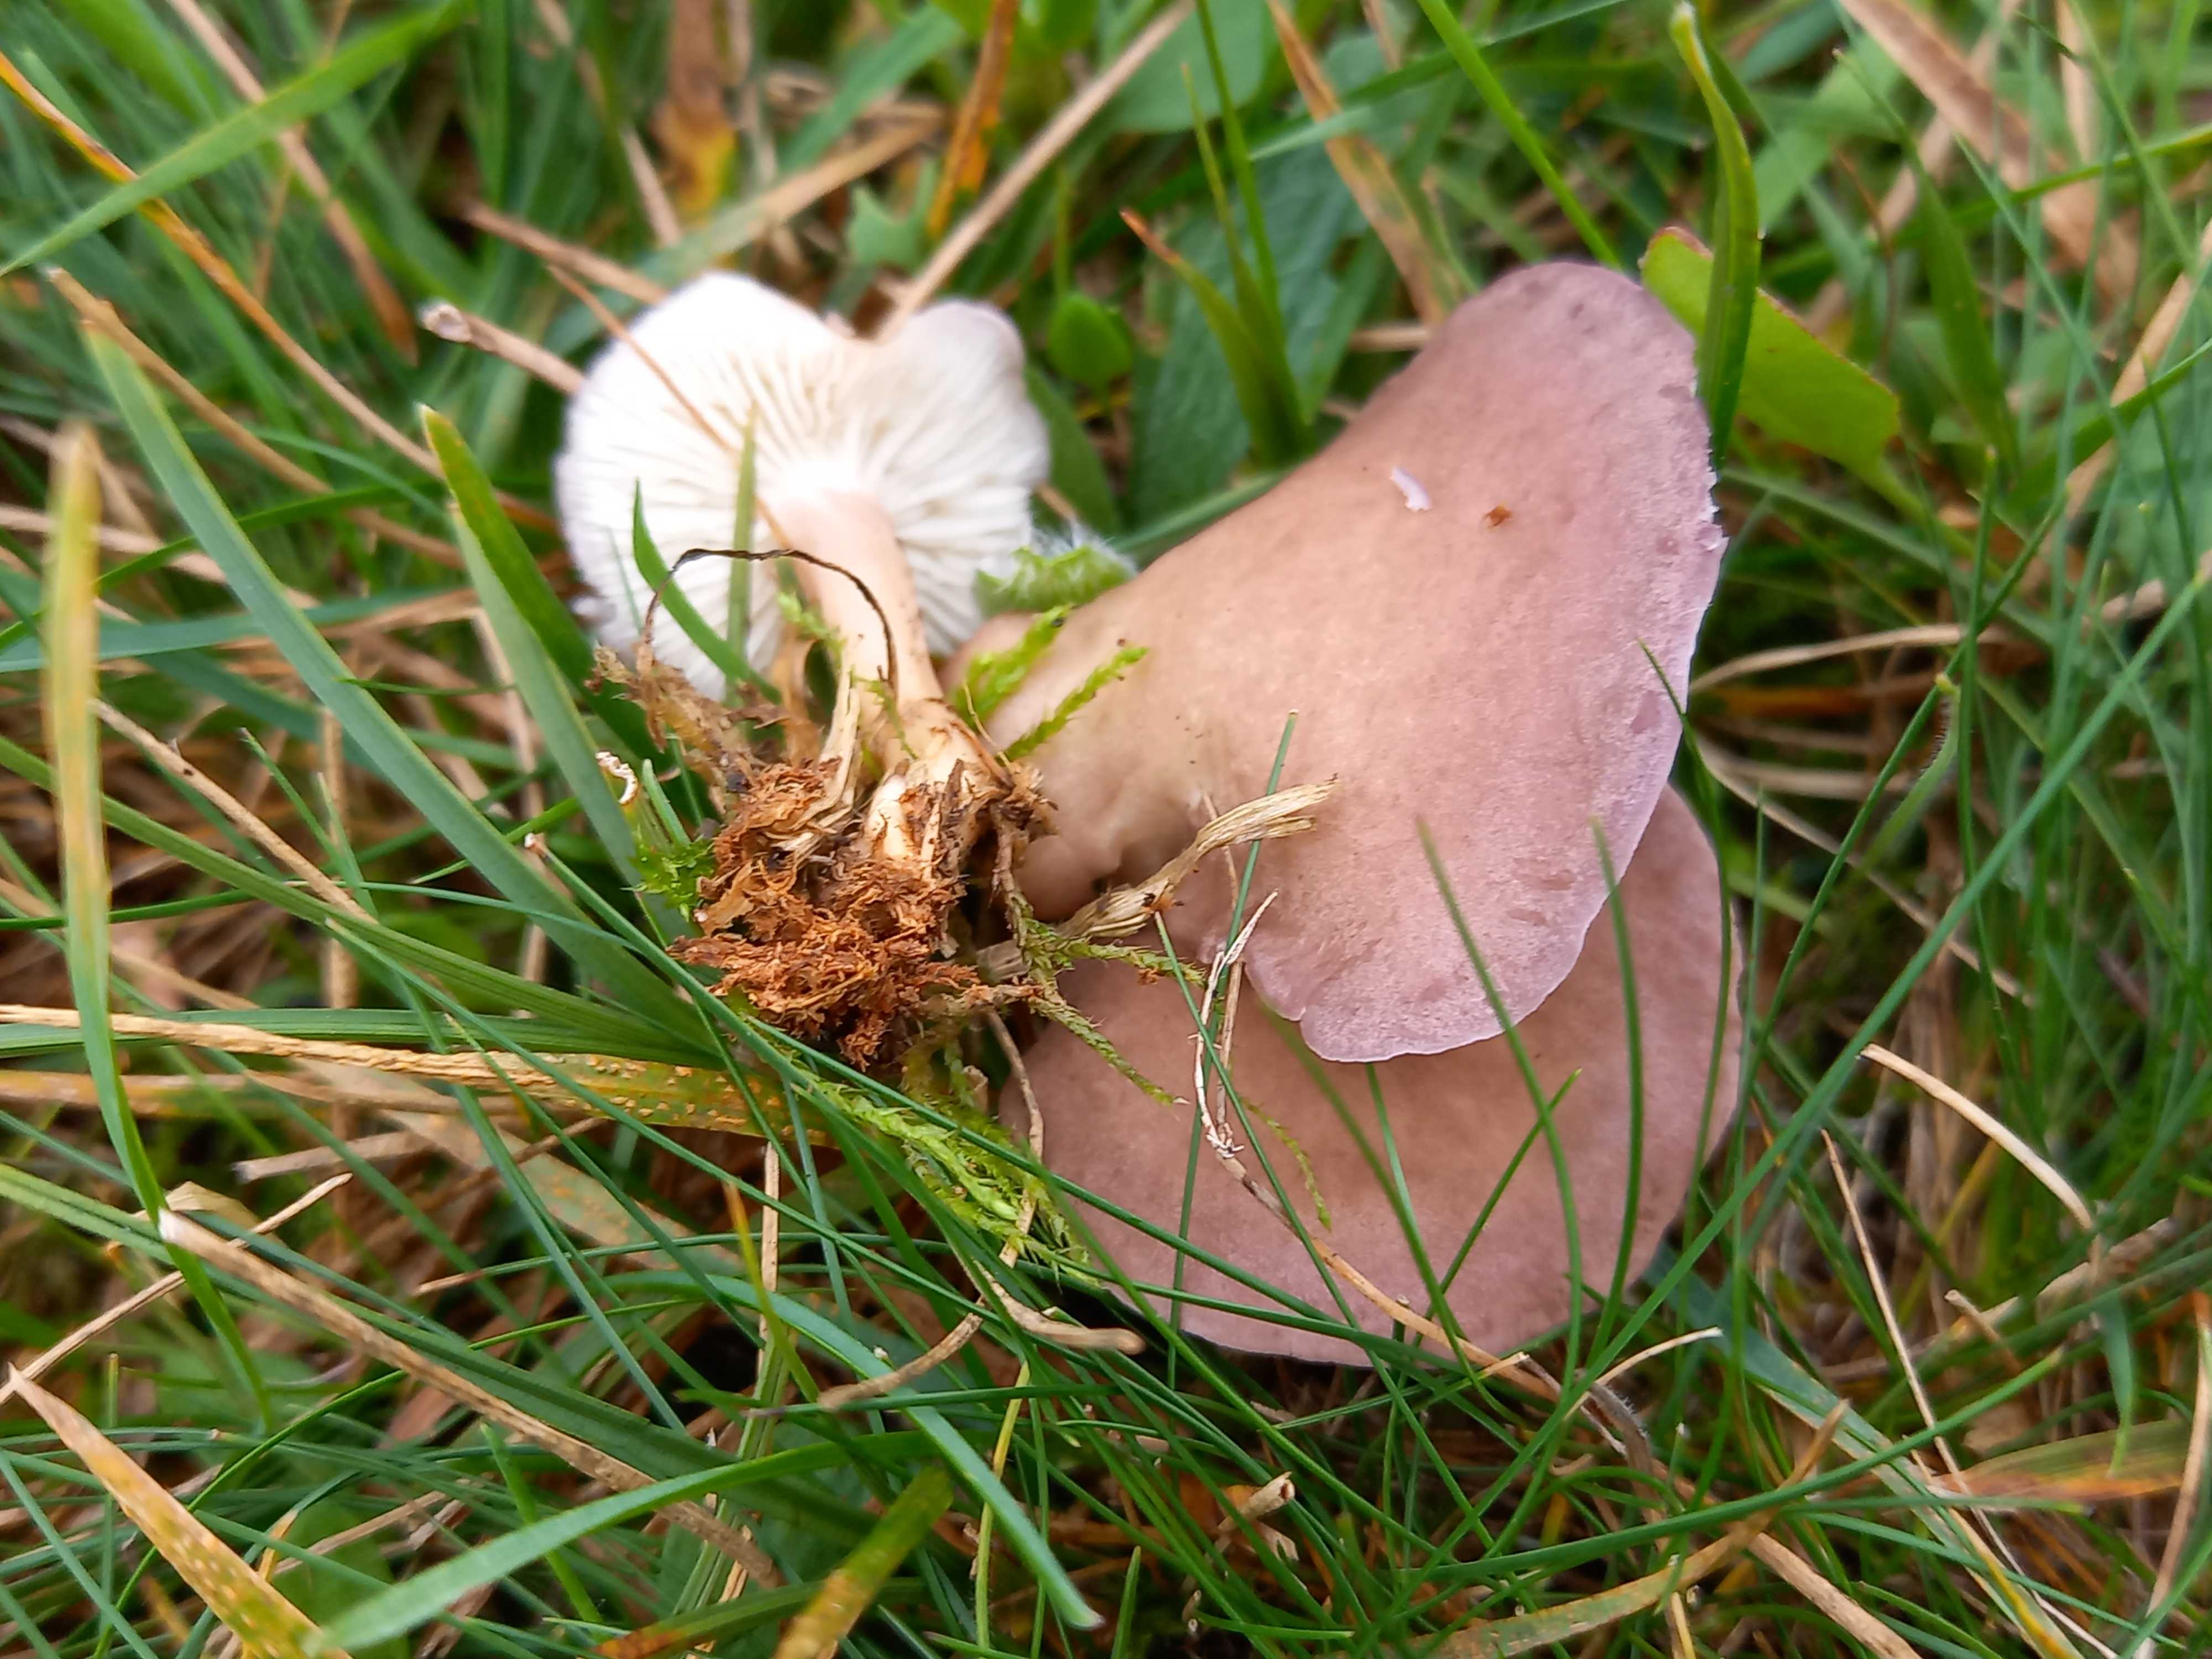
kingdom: Fungi
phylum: Basidiomycota
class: Agaricomycetes
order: Agaricales
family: Lyophyllaceae
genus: Calocybe
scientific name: Calocybe carnea
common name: rosa fagerhat
